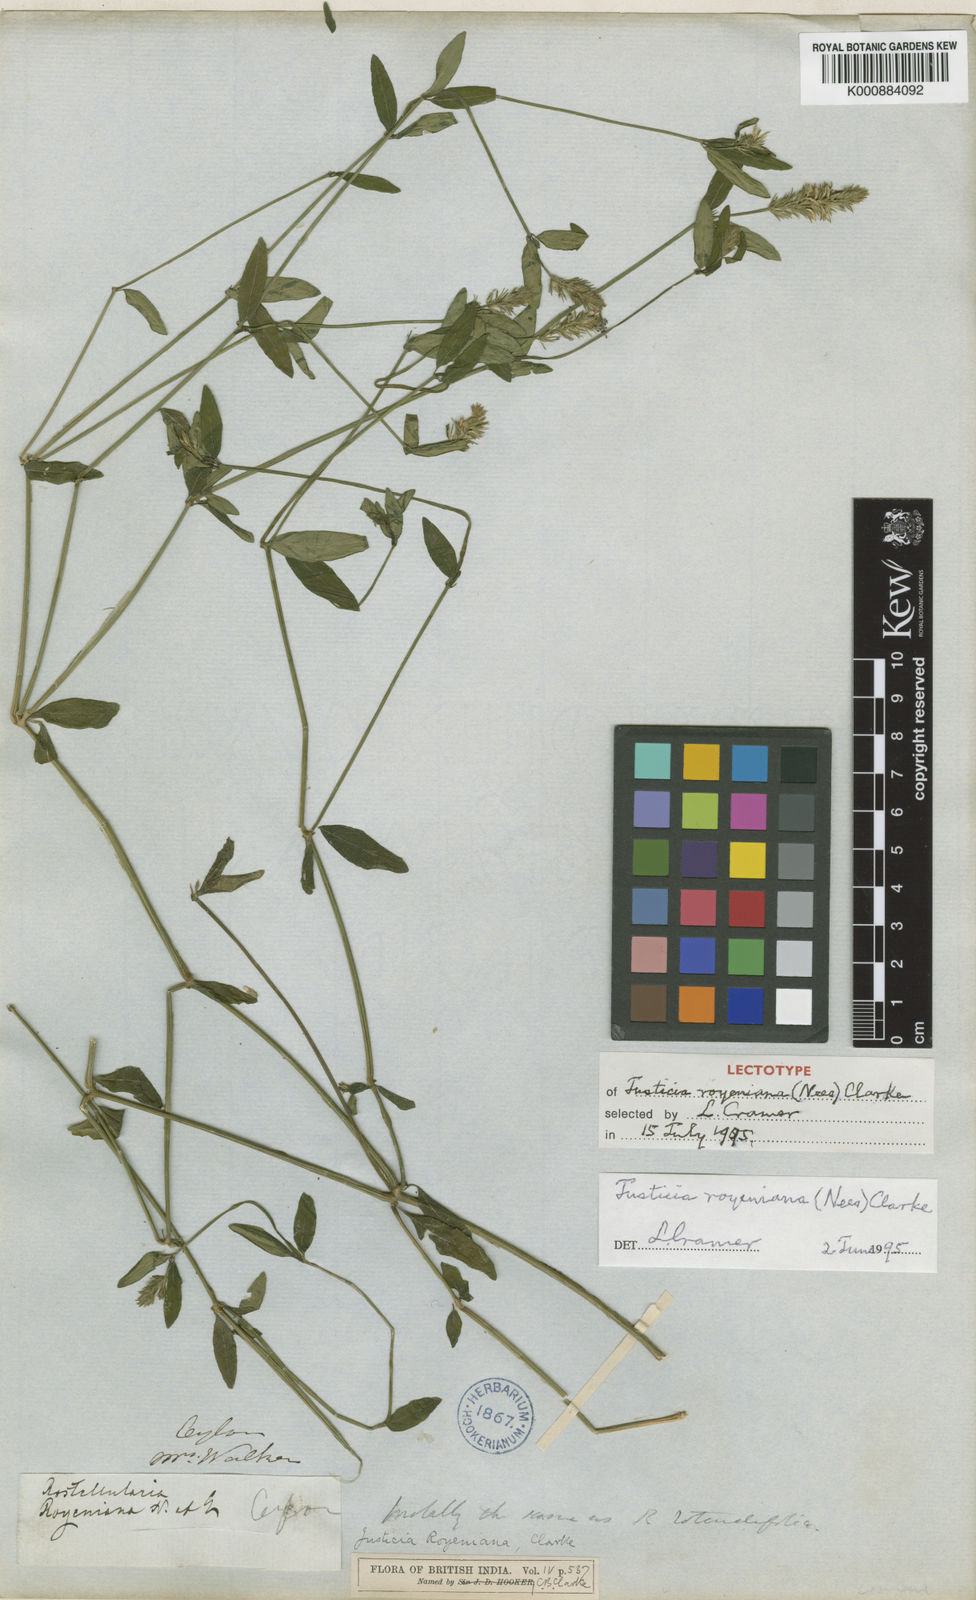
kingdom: Plantae
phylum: Tracheophyta
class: Magnoliopsida
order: Lamiales
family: Acanthaceae
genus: Rostellularia
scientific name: Rostellularia royeniana
